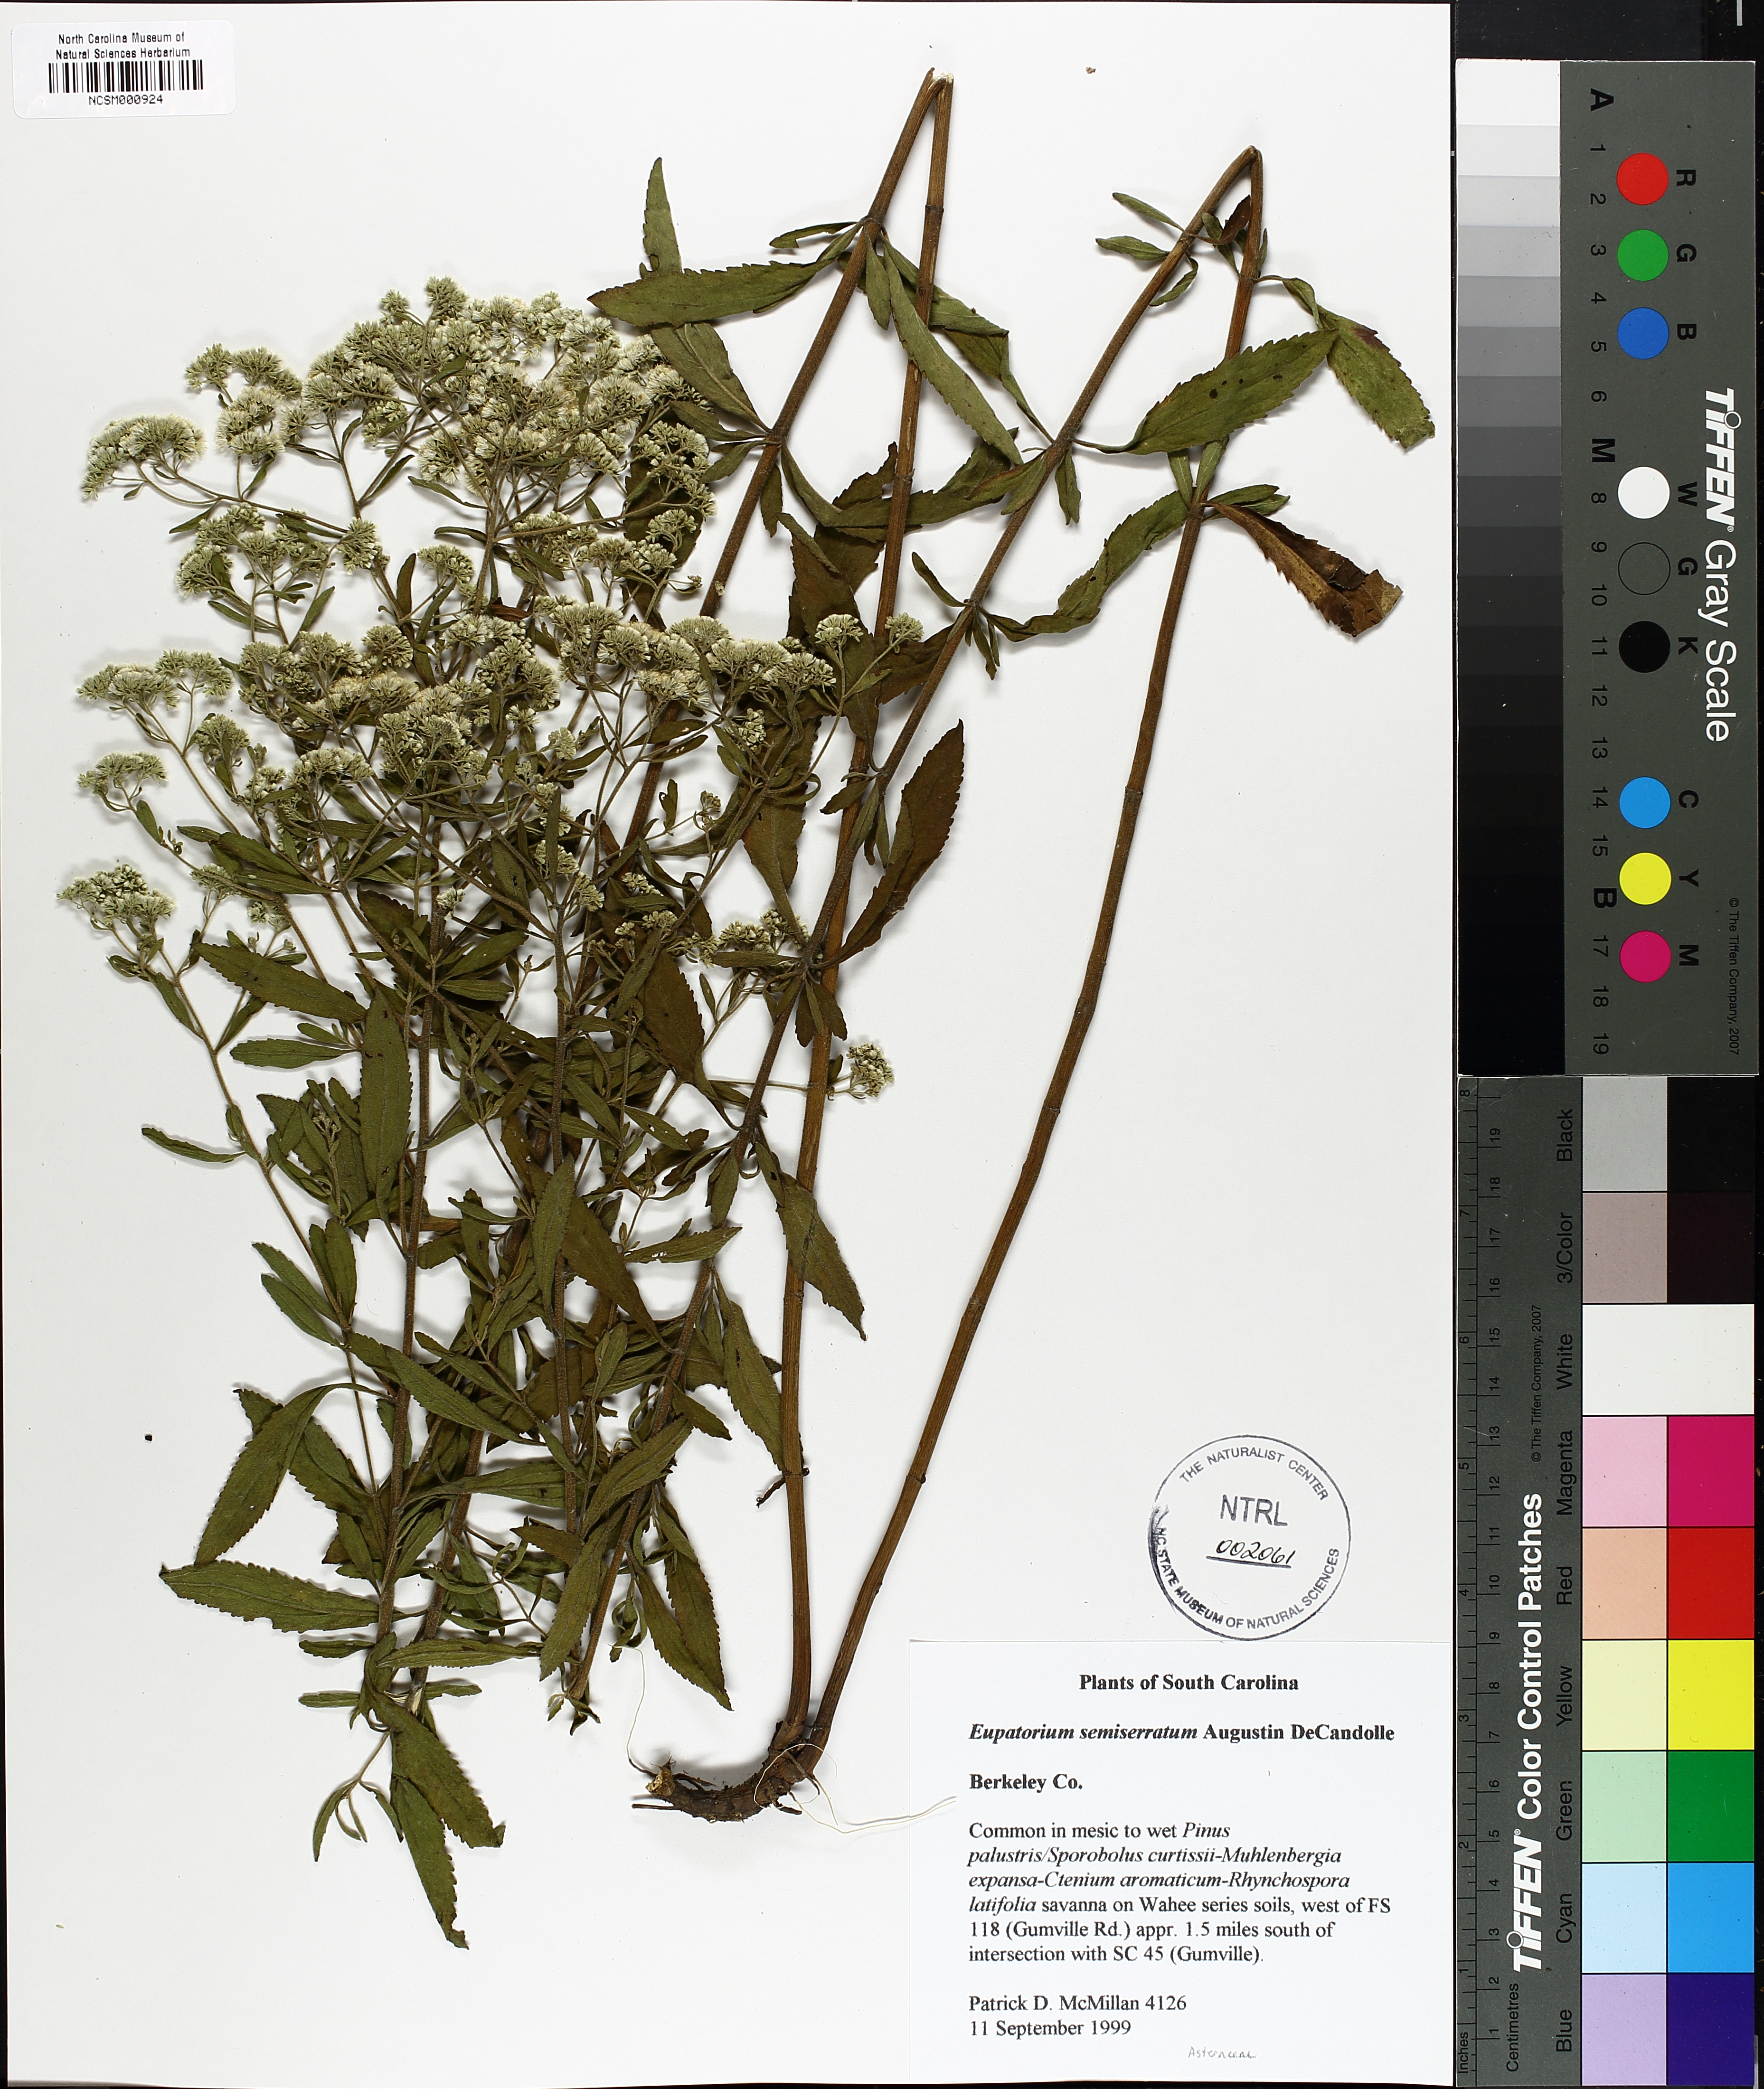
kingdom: Plantae
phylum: Tracheophyta
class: Magnoliopsida
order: Asterales
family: Asteraceae
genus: Eupatorium
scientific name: Eupatorium semiserratum
